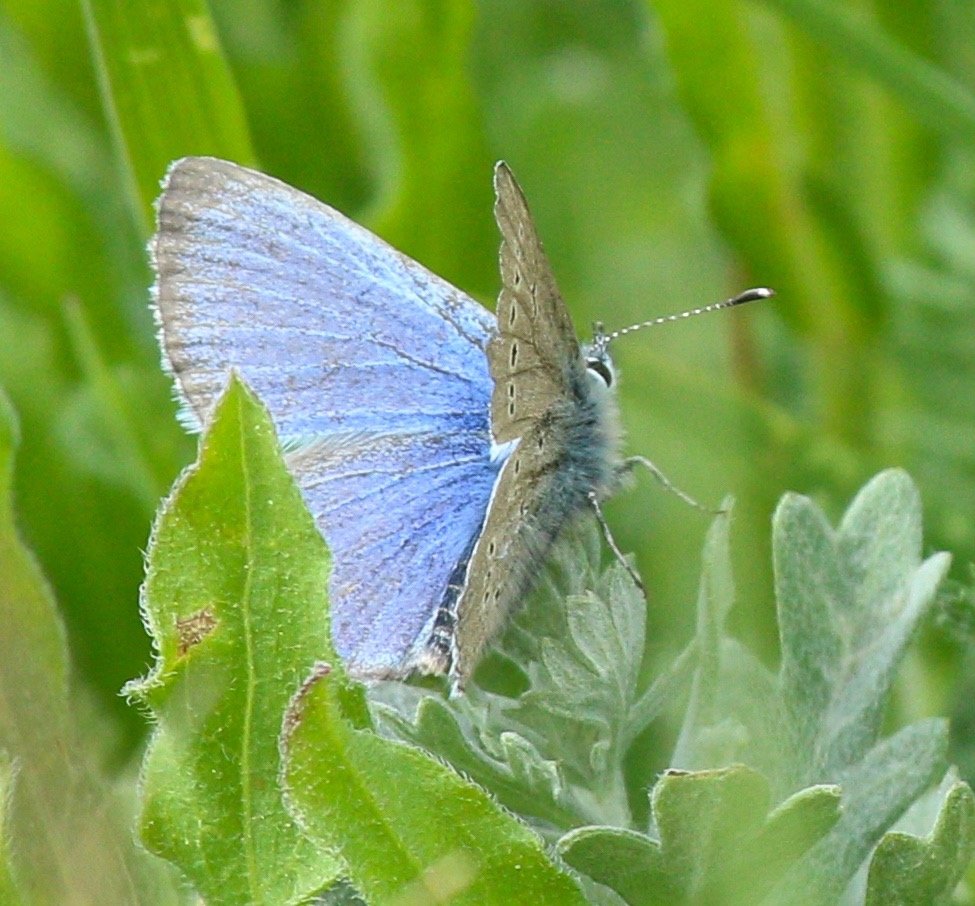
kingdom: Animalia
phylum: Arthropoda
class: Insecta
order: Lepidoptera
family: Lycaenidae
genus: Glaucopsyche
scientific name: Glaucopsyche lygdamus
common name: Silvery Blue
